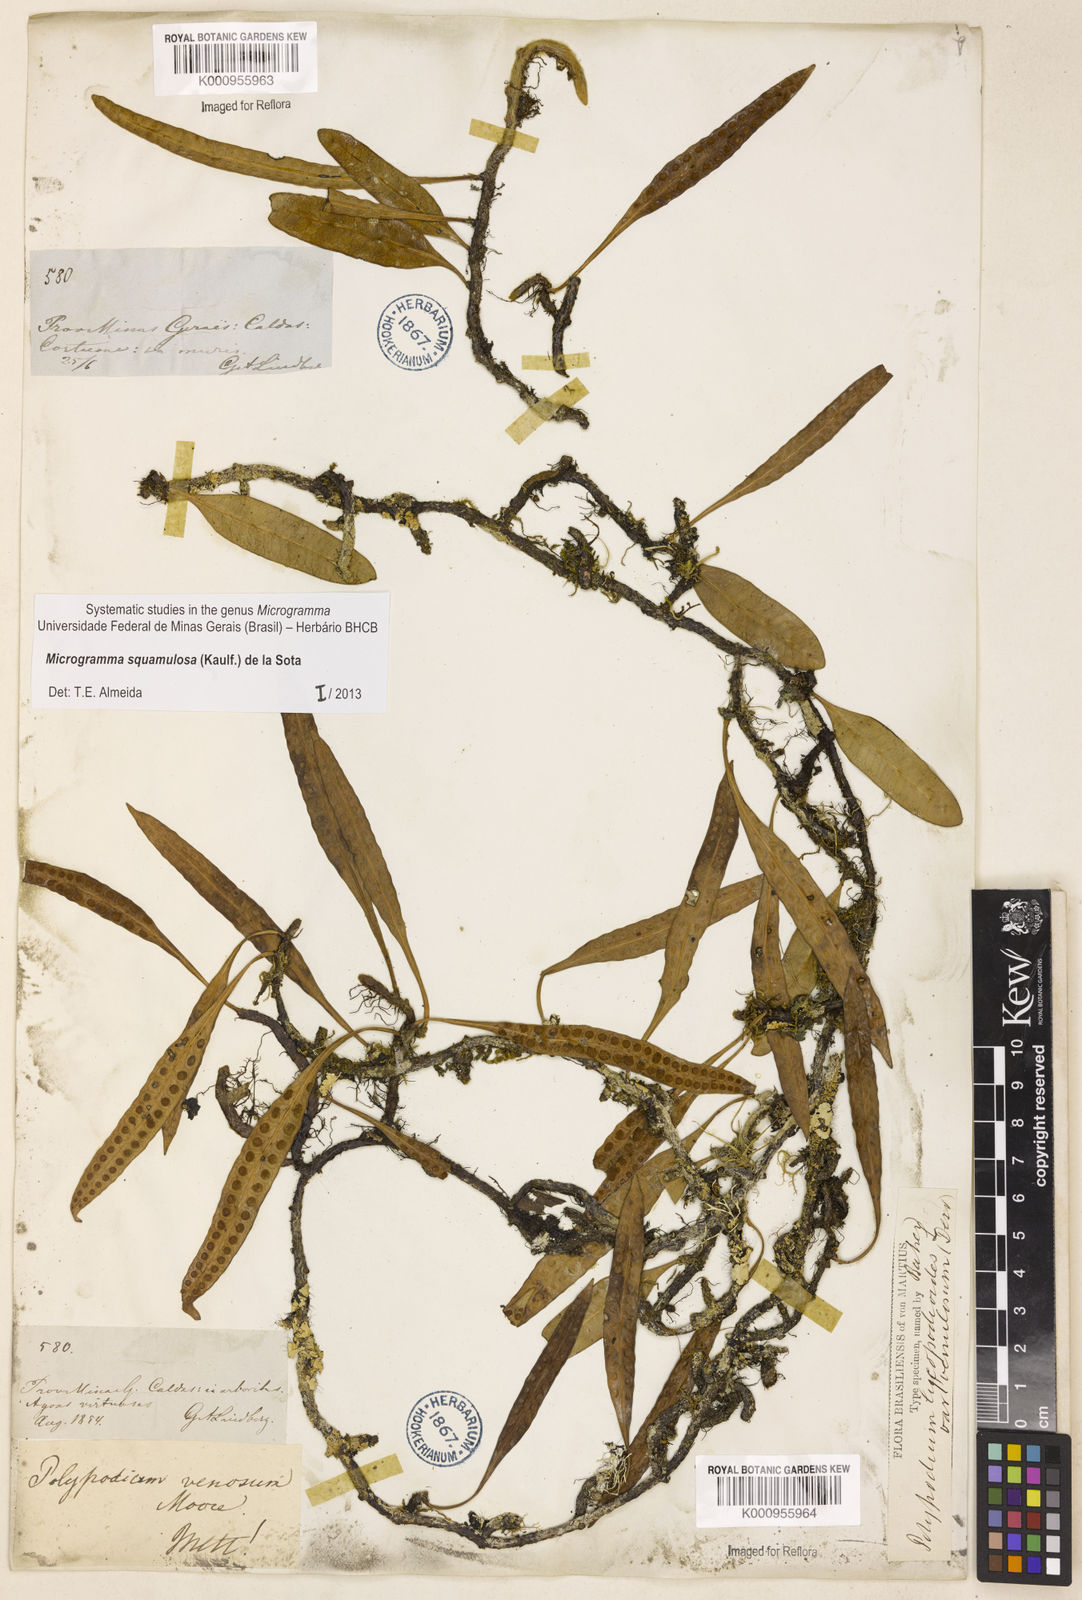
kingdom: Plantae
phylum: Tracheophyta
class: Polypodiopsida
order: Polypodiales
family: Polypodiaceae
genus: Microgramma
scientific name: Microgramma squamulosa
